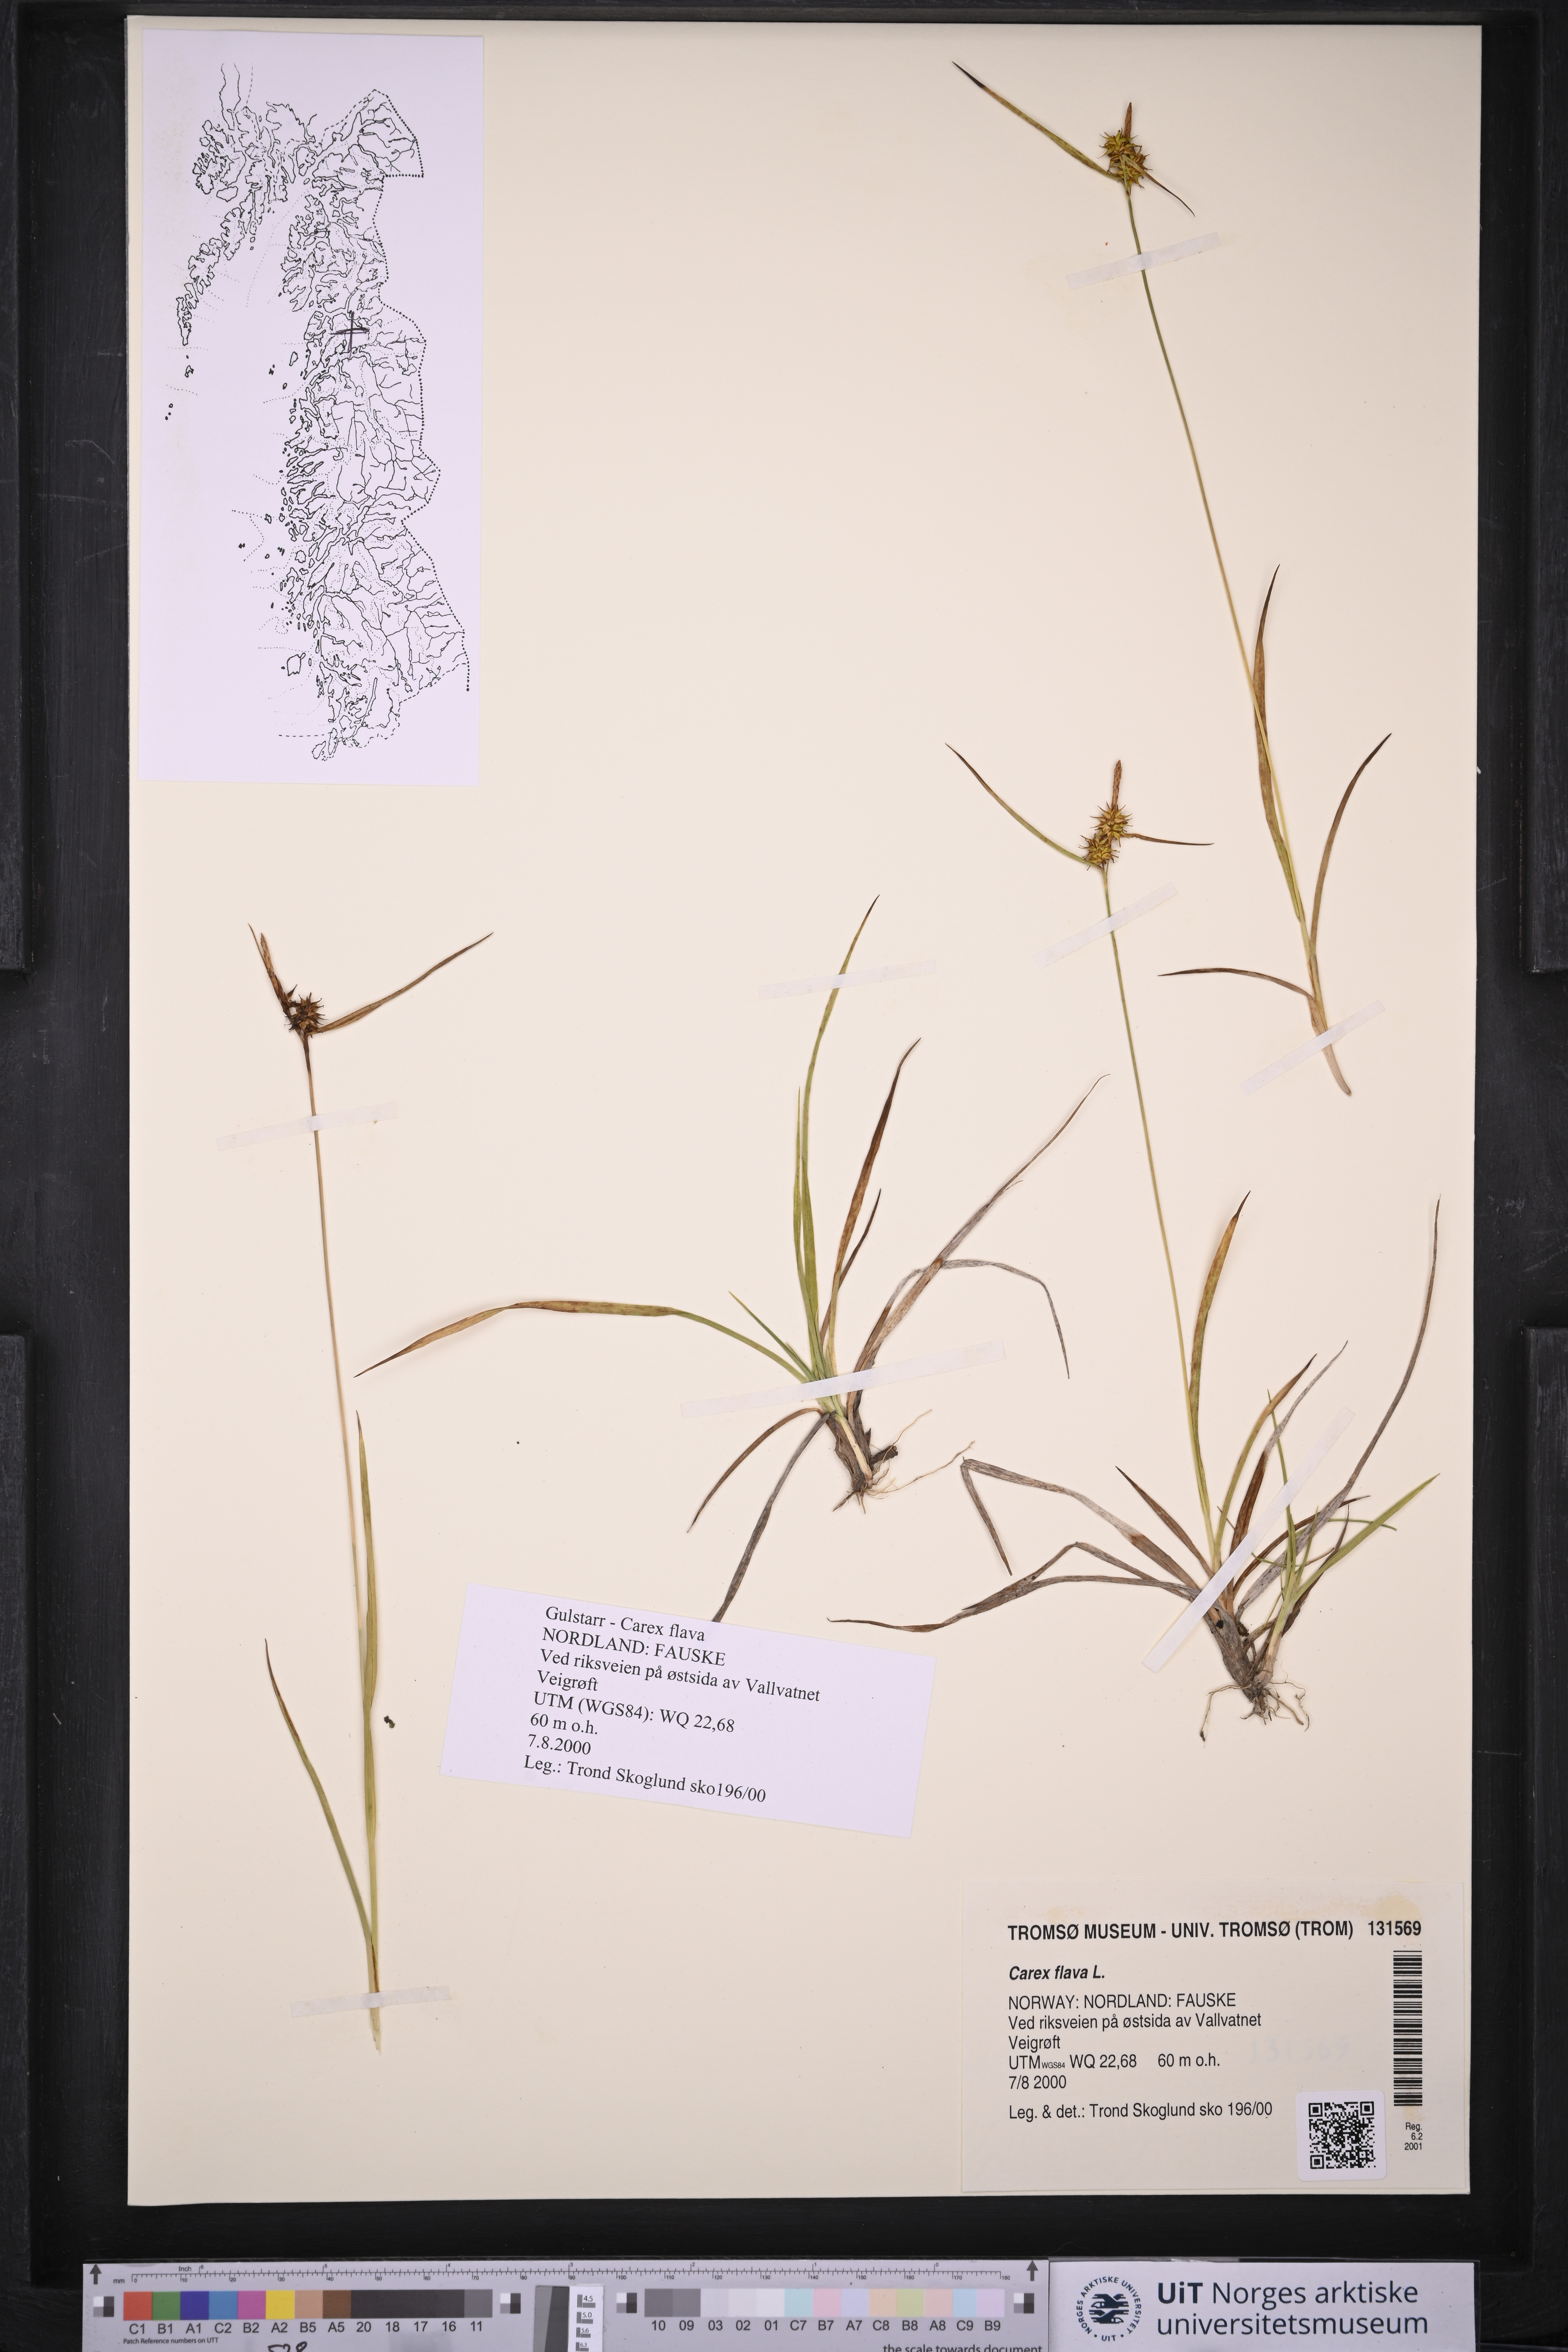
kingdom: Plantae
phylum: Tracheophyta
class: Liliopsida
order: Poales
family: Cyperaceae
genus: Carex
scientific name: Carex flava
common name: Large yellow-sedge
